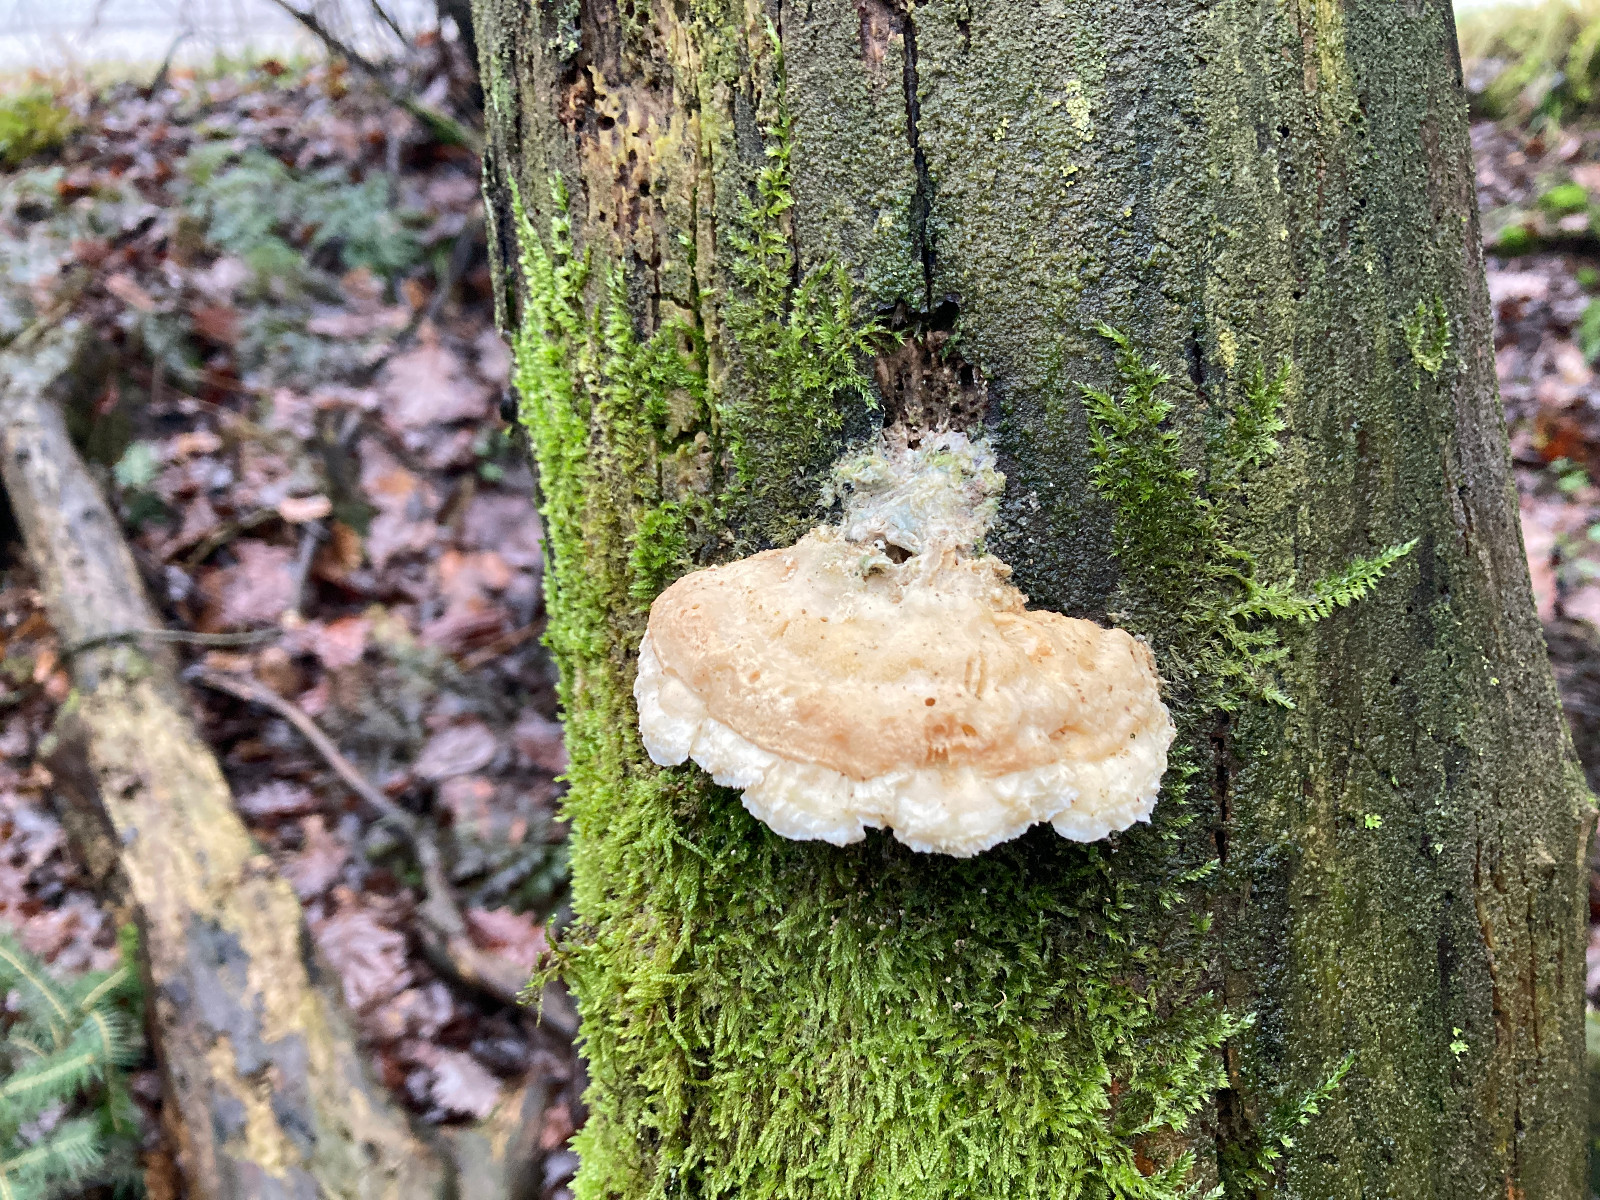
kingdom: Fungi
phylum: Basidiomycota
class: Agaricomycetes
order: Polyporales
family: Polyporaceae
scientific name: Polyporaceae
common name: poresvampfamilien
